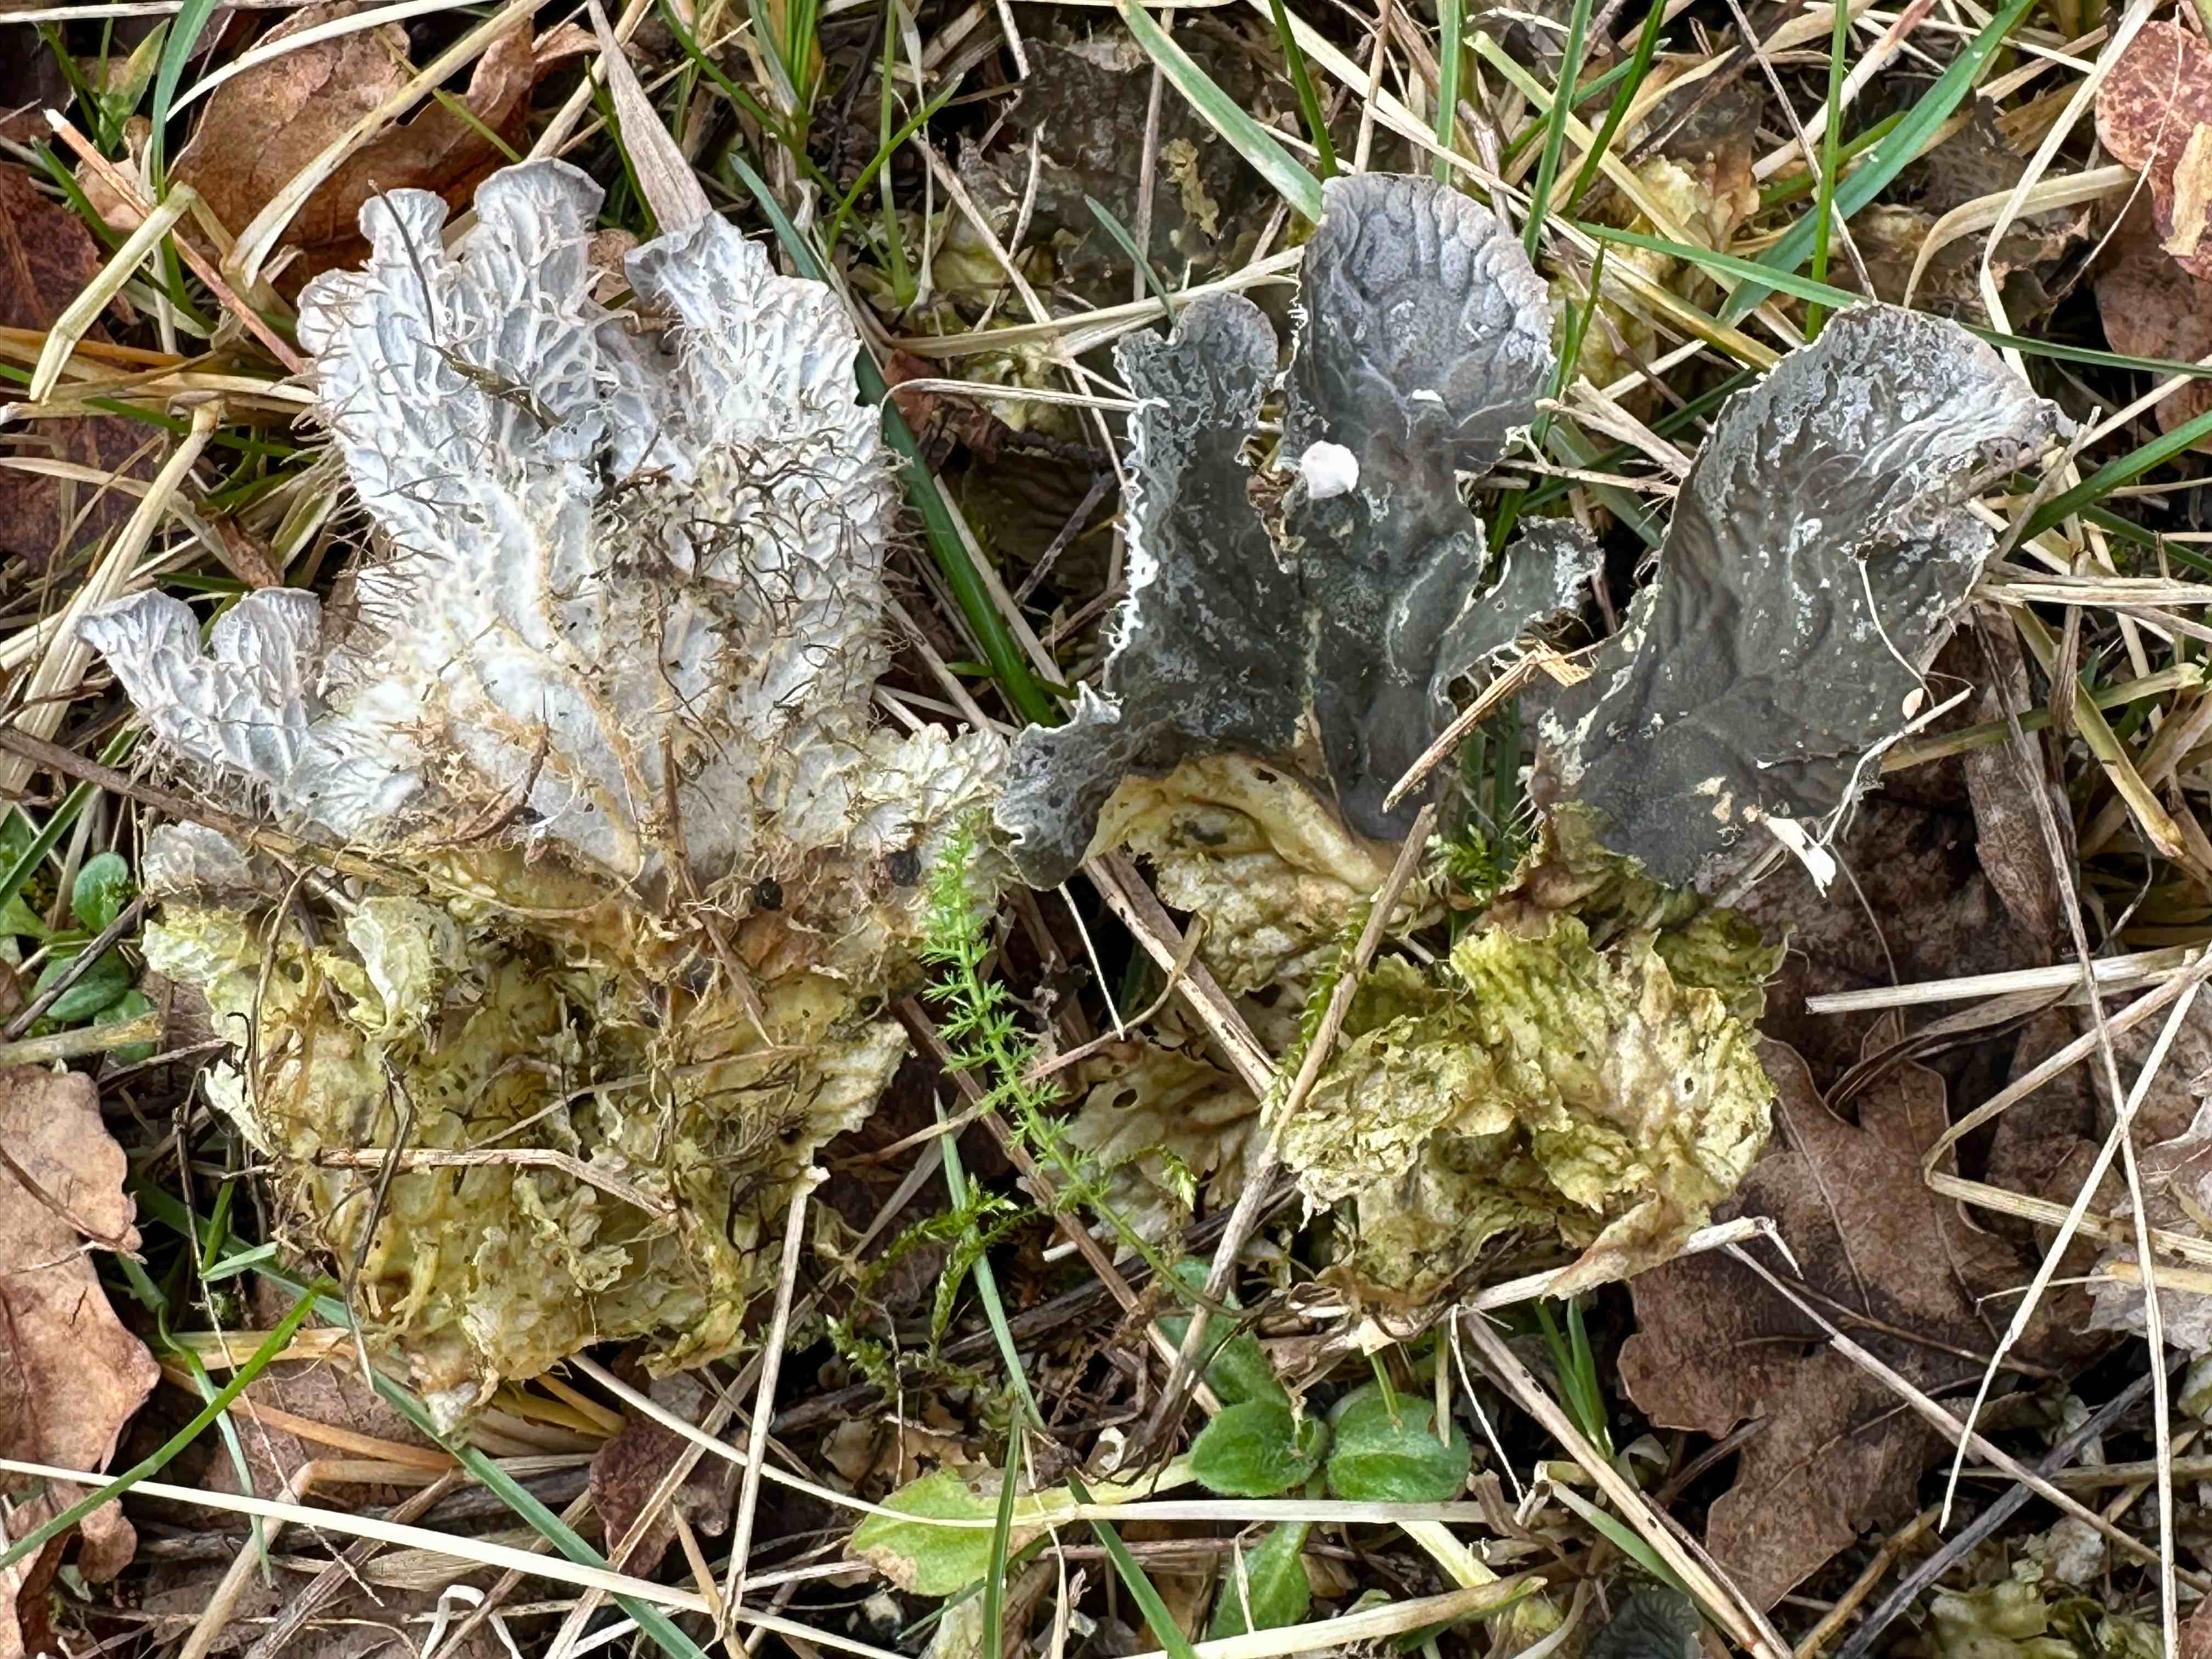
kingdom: Fungi
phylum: Ascomycota
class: Lecanoromycetes
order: Peltigerales
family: Peltigeraceae
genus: Peltigera
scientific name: Peltigera membranacea
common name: tynd skjoldlav
